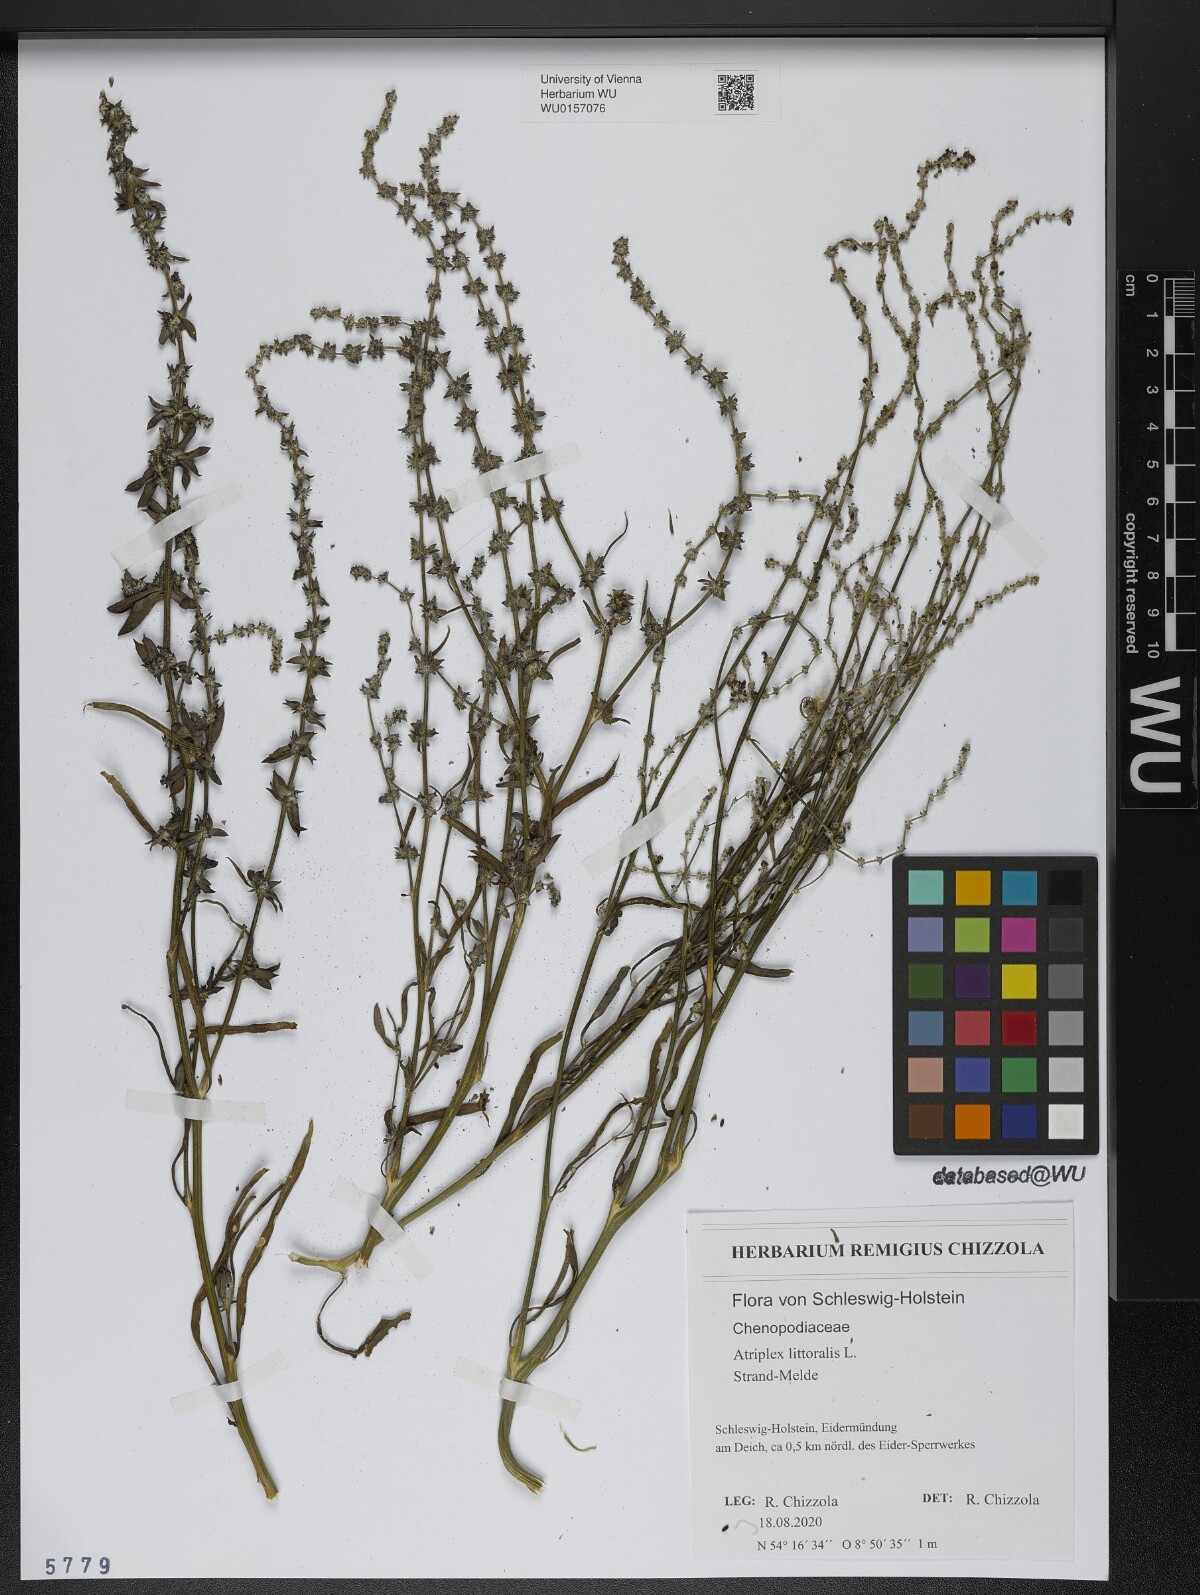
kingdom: Plantae
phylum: Tracheophyta
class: Magnoliopsida
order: Caryophyllales
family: Amaranthaceae
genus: Atriplex
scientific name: Atriplex littoralis
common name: Grass-leaved orache
